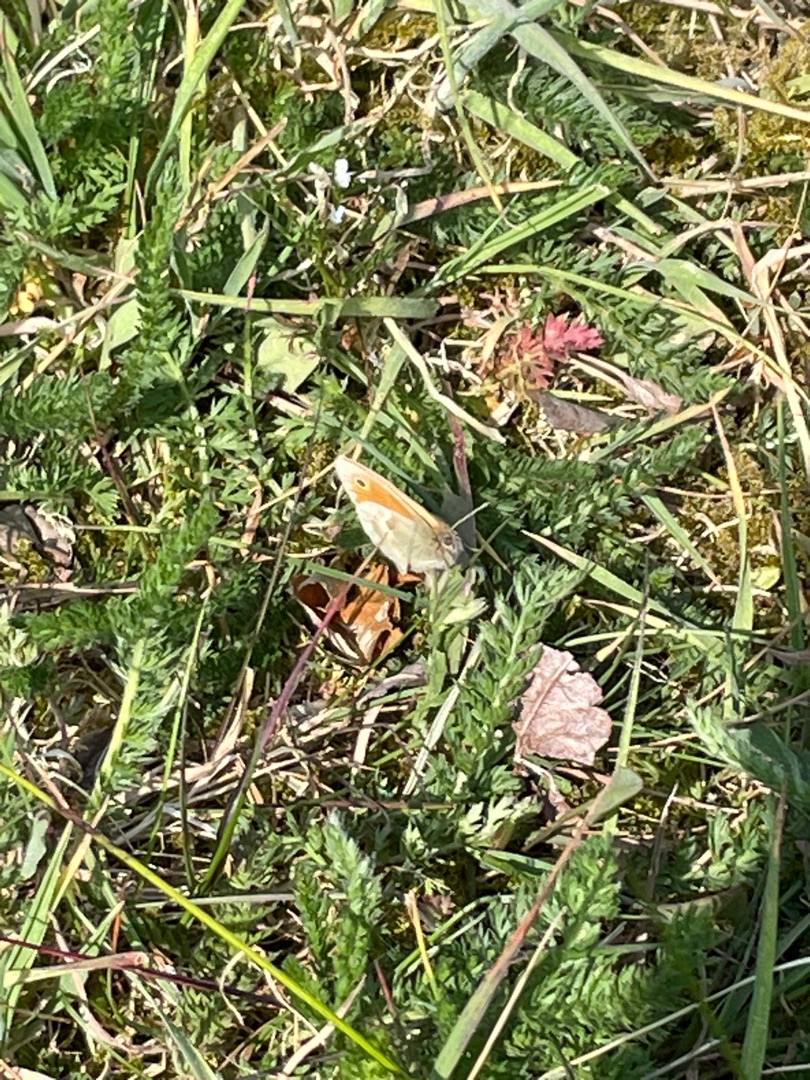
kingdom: Animalia
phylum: Arthropoda
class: Insecta
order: Lepidoptera
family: Nymphalidae
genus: Coenonympha
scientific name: Coenonympha pamphilus
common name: Okkergul randøje
